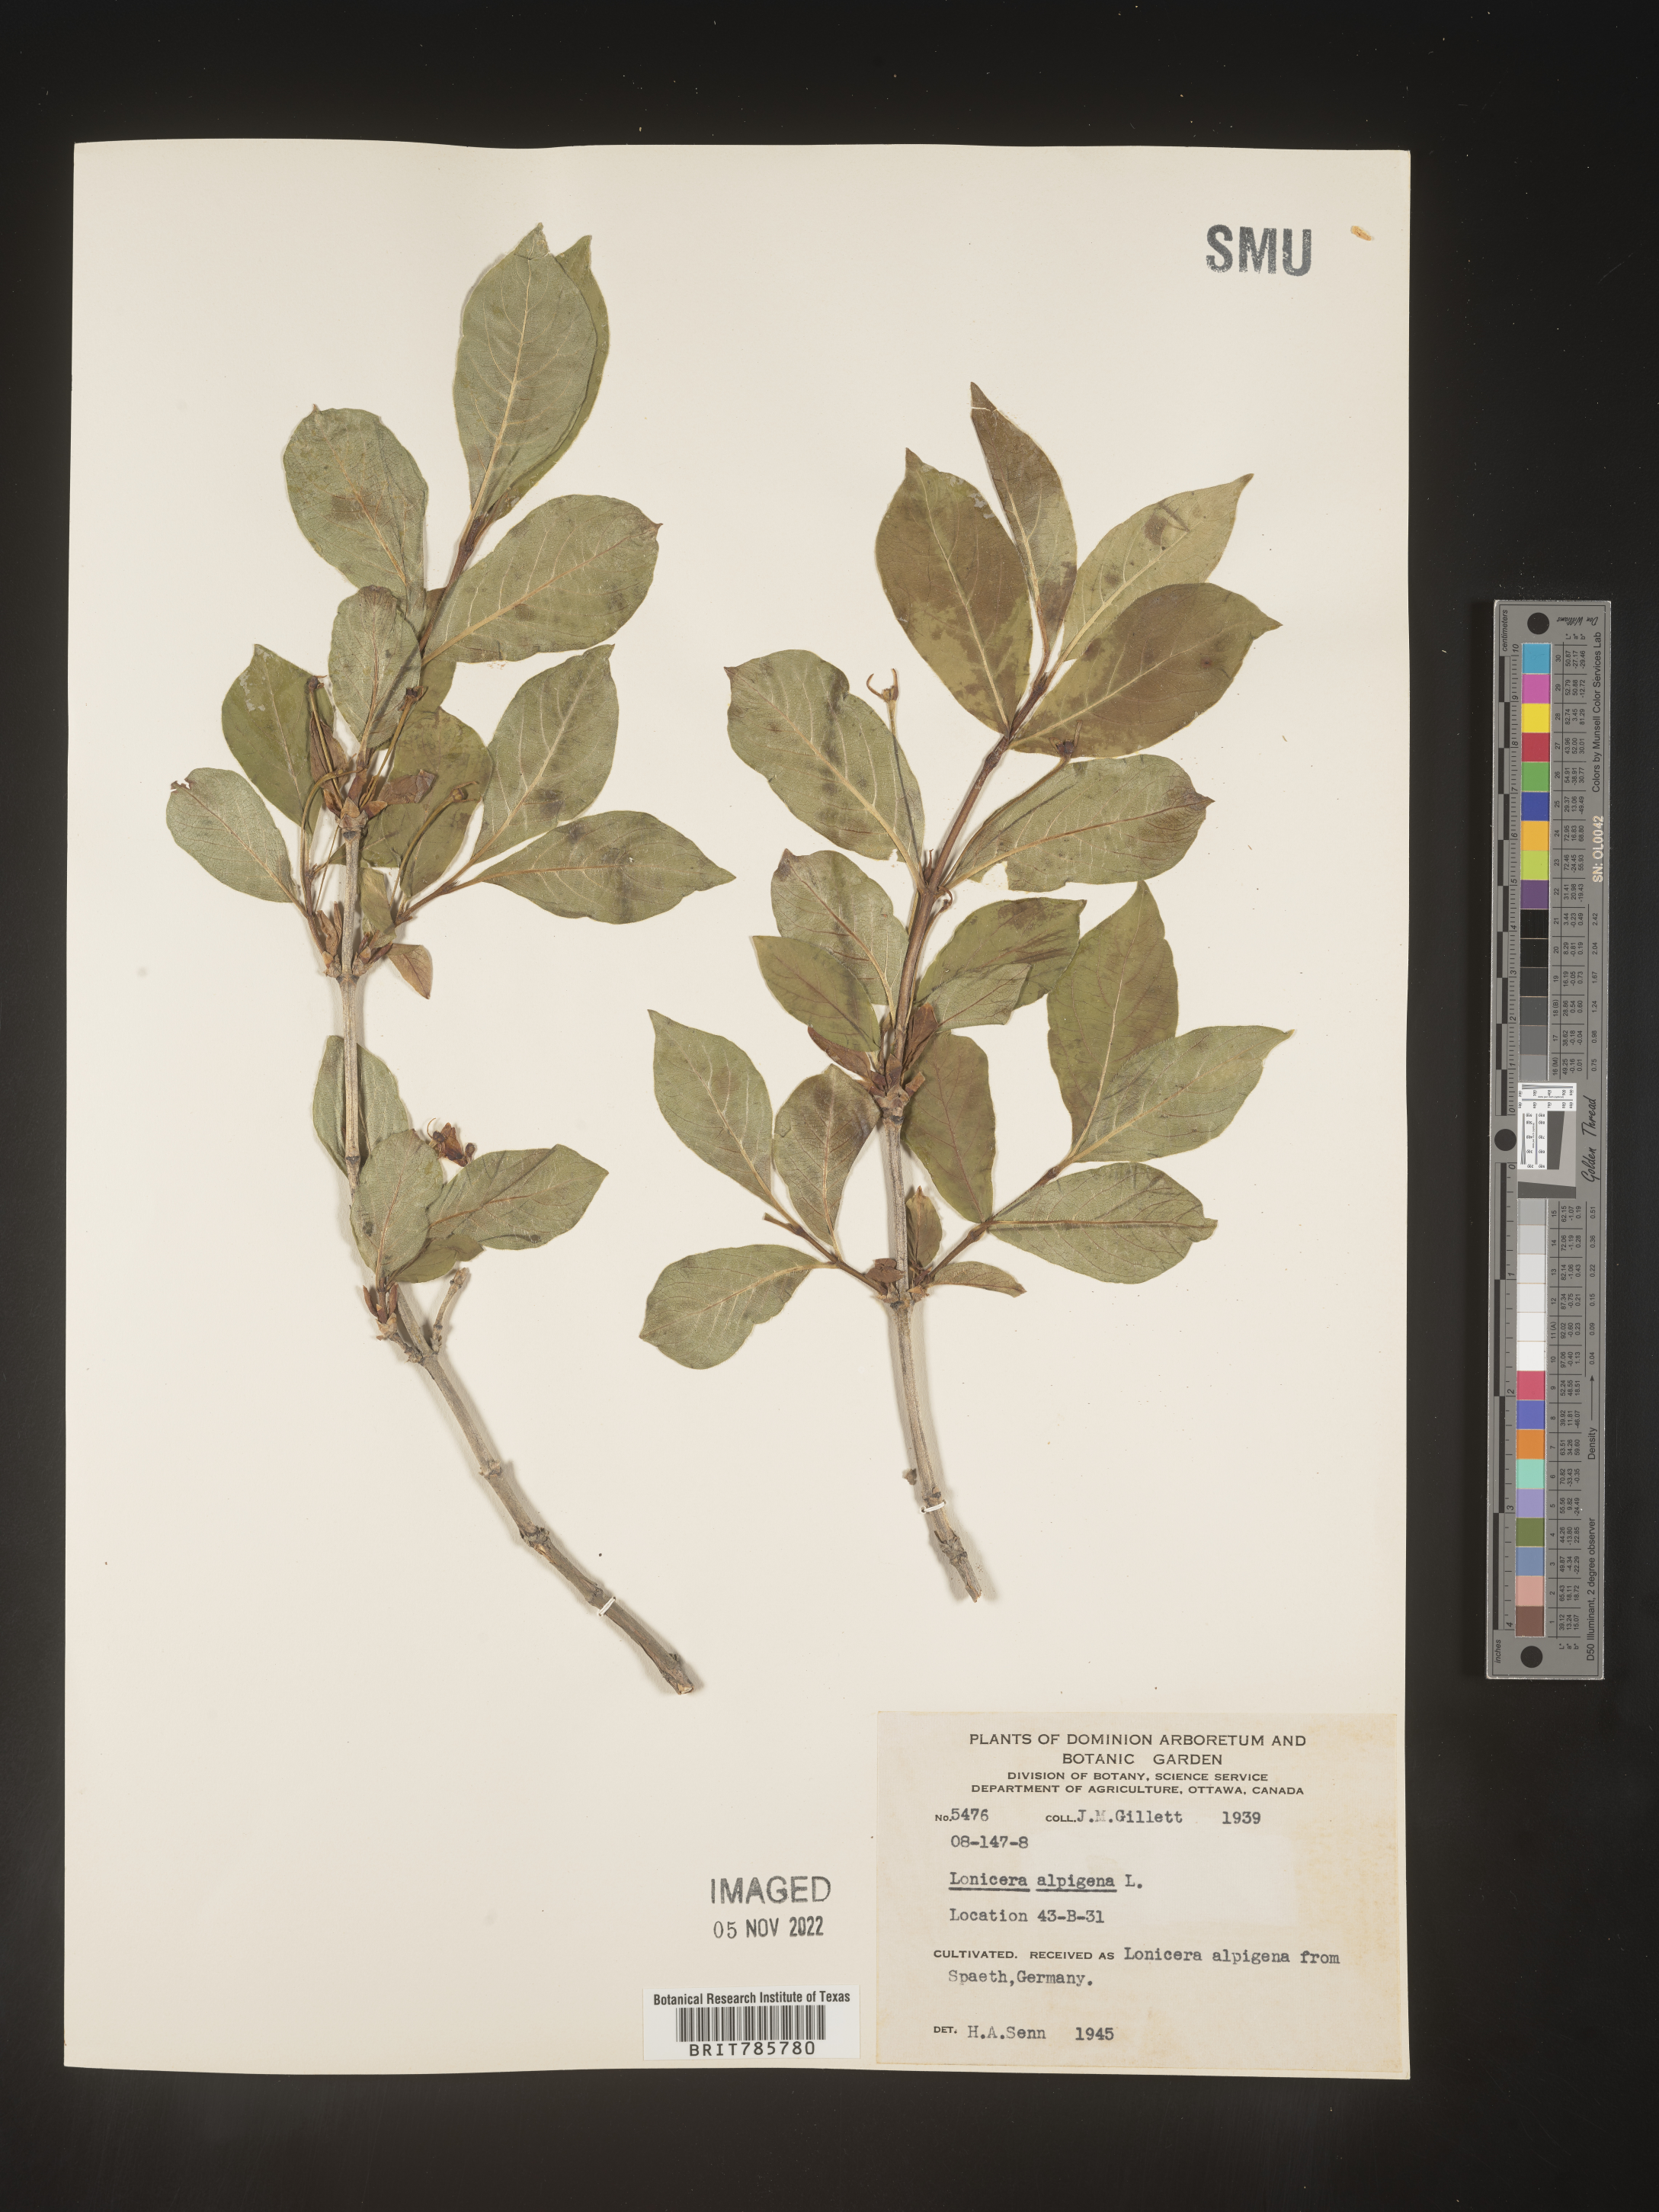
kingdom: Plantae
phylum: Tracheophyta
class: Magnoliopsida
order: Dipsacales
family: Caprifoliaceae
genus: Lonicera
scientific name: Lonicera
